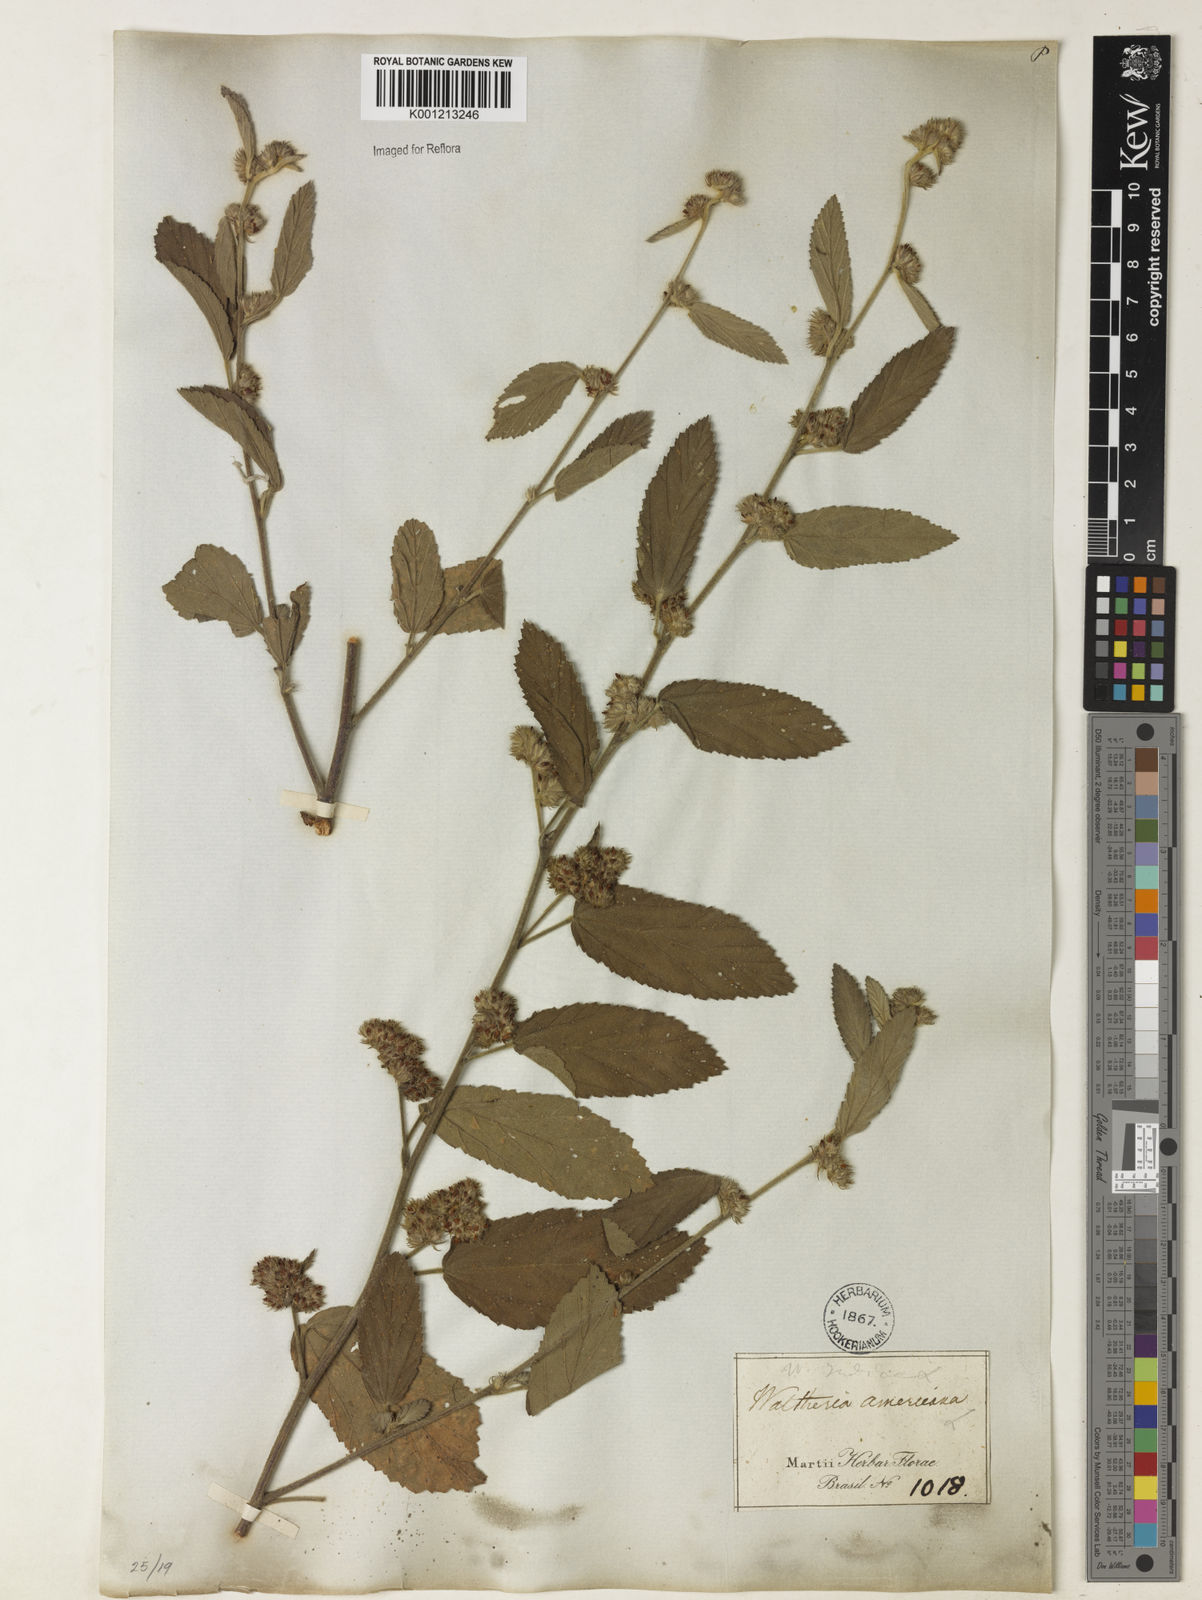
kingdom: Plantae
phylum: Tracheophyta
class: Magnoliopsida
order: Malvales
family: Malvaceae
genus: Waltheria
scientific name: Waltheria indica
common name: Leather-coat
